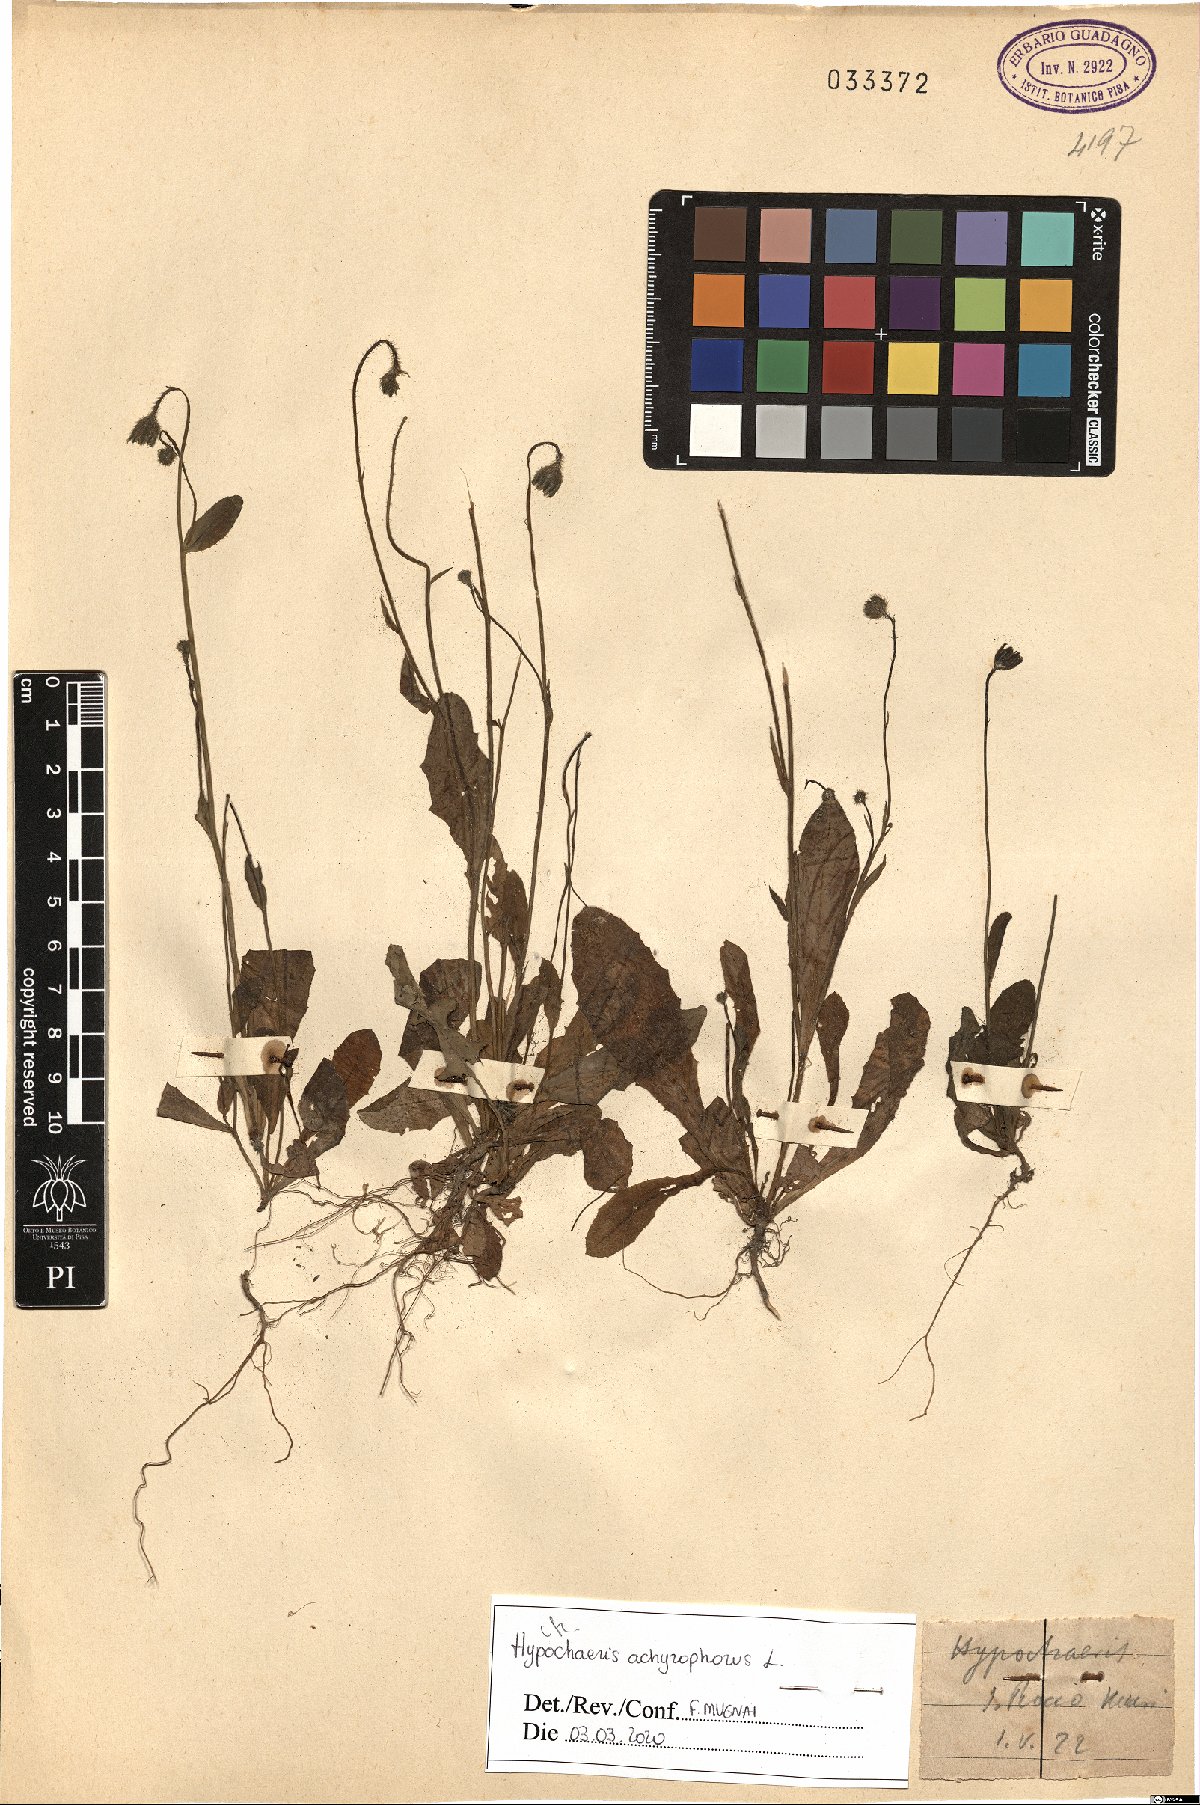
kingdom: Plantae
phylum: Tracheophyta
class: Magnoliopsida
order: Asterales
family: Asteraceae
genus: Achyrophorus
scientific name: Achyrophorus valdesii
